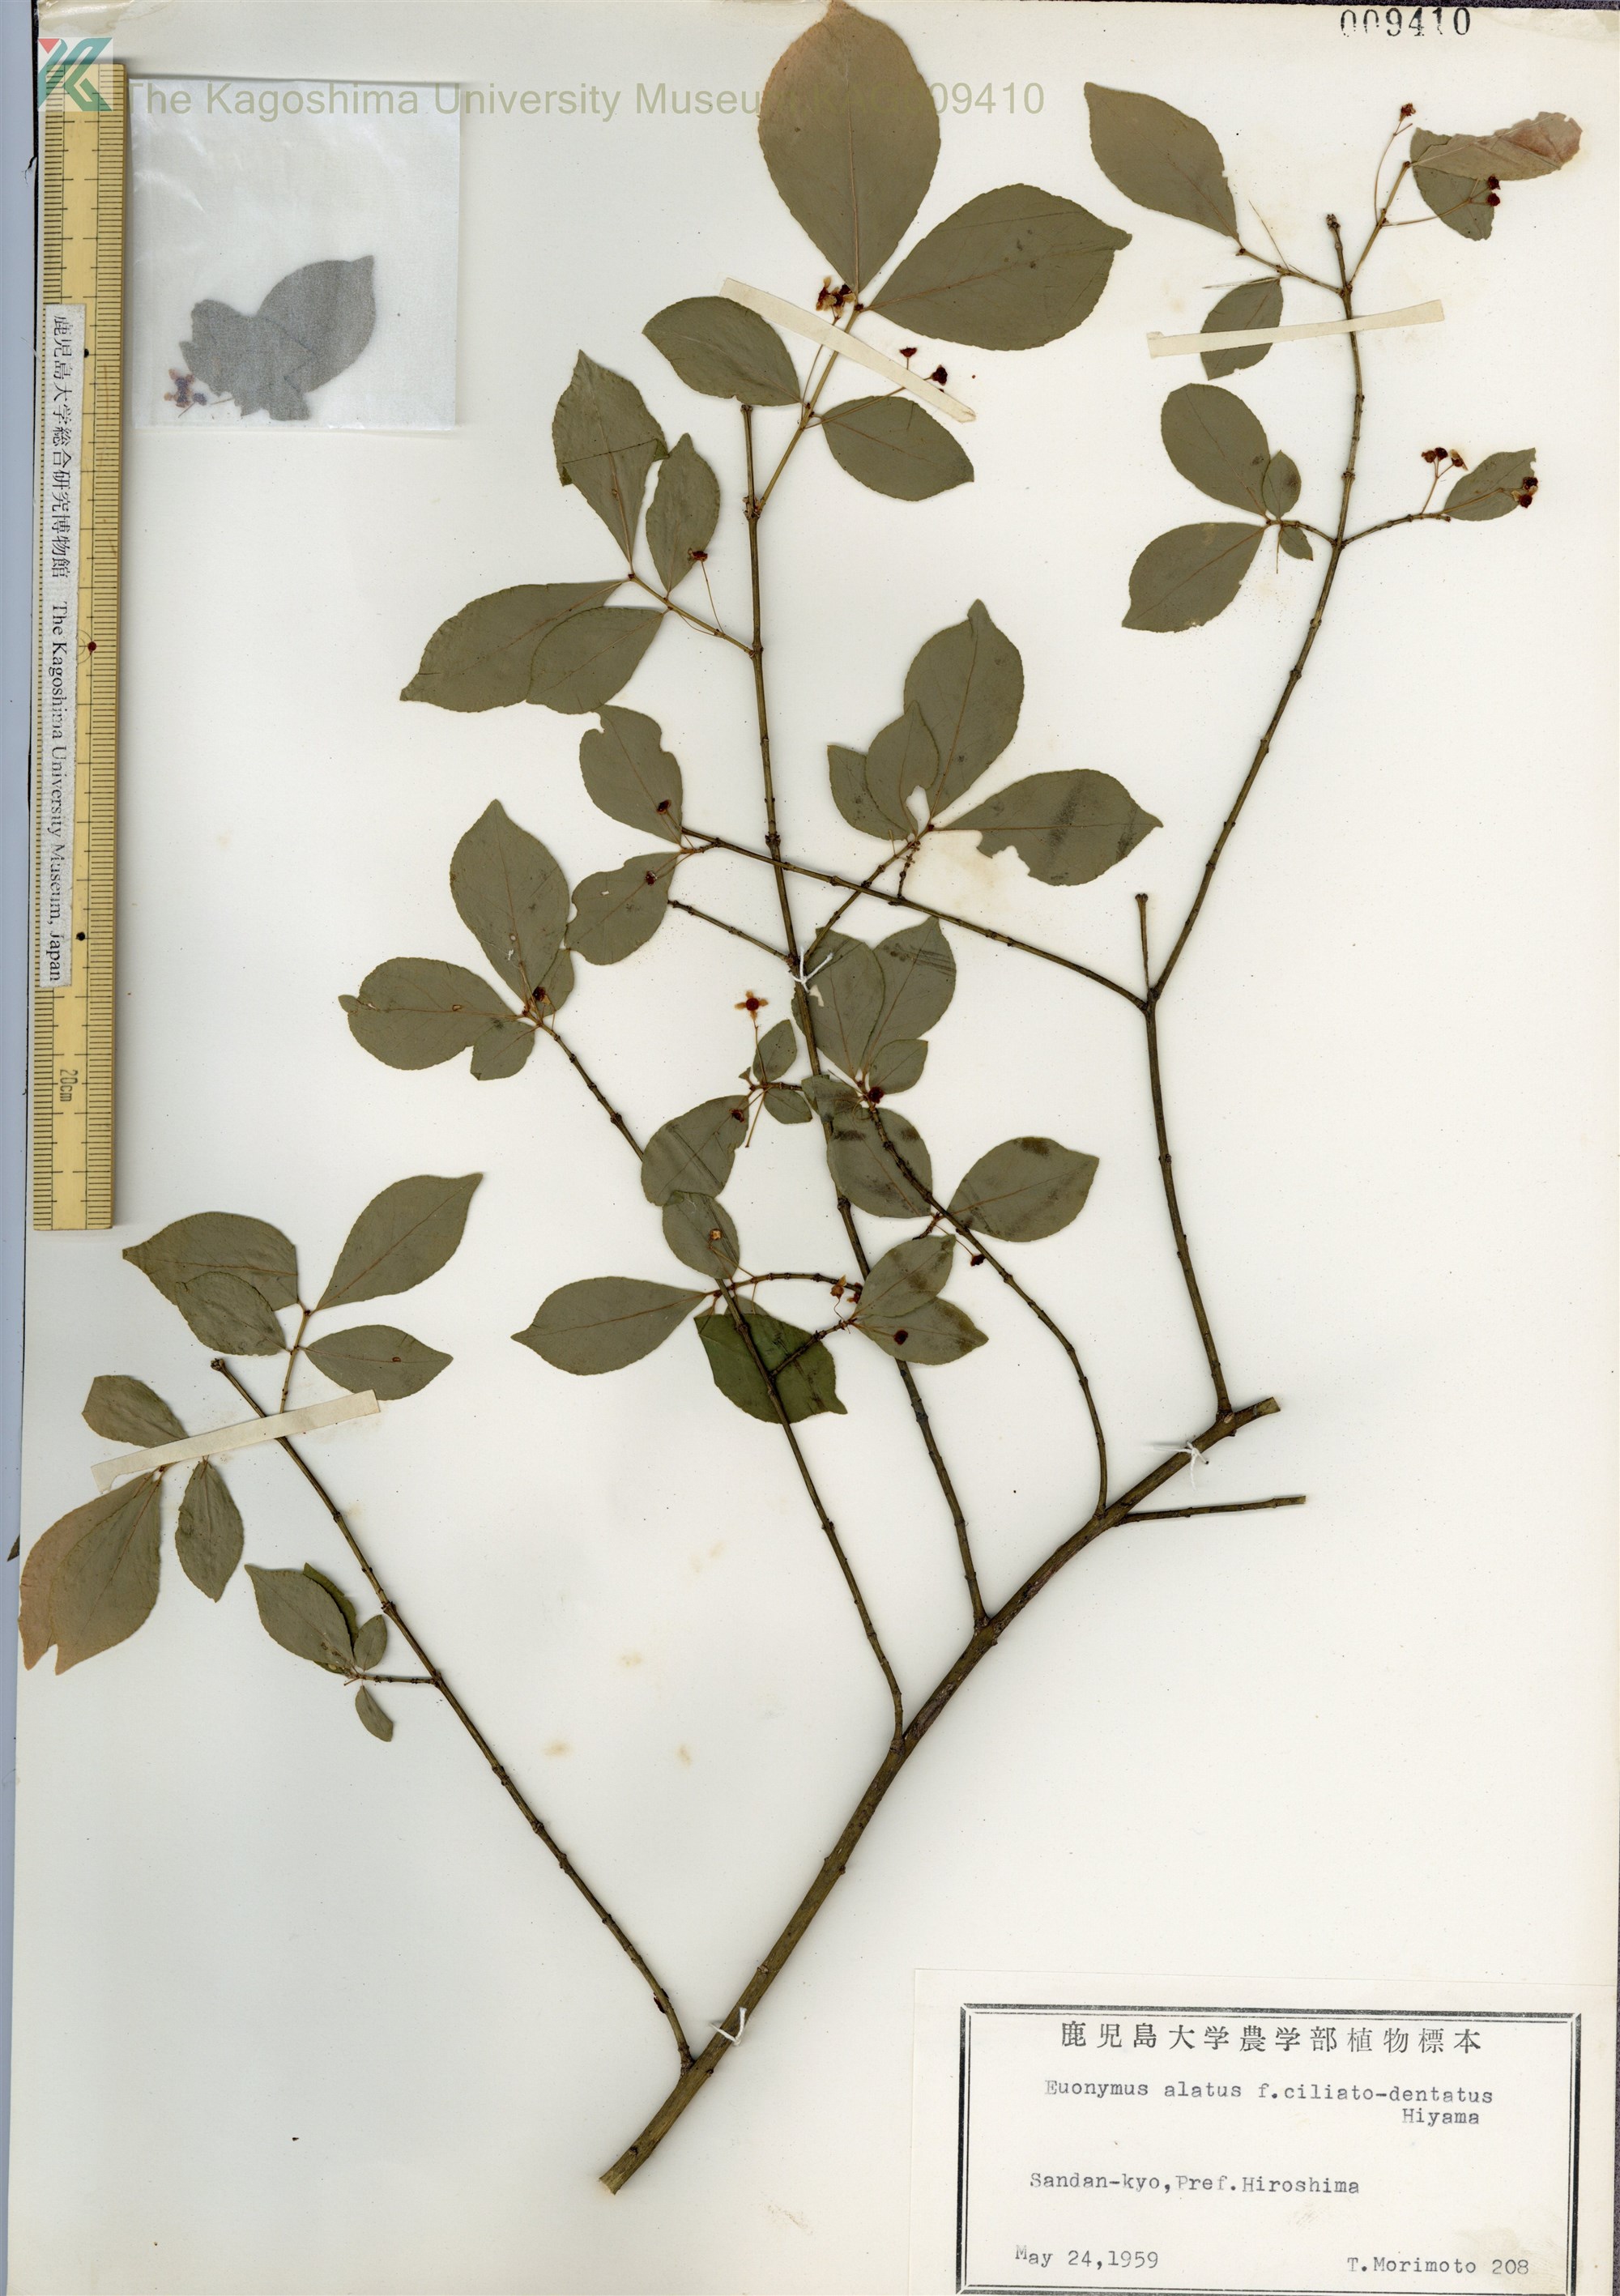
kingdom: Plantae
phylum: Tracheophyta
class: Magnoliopsida
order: Celastrales
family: Celastraceae
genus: Euonymus
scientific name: Euonymus alatus
